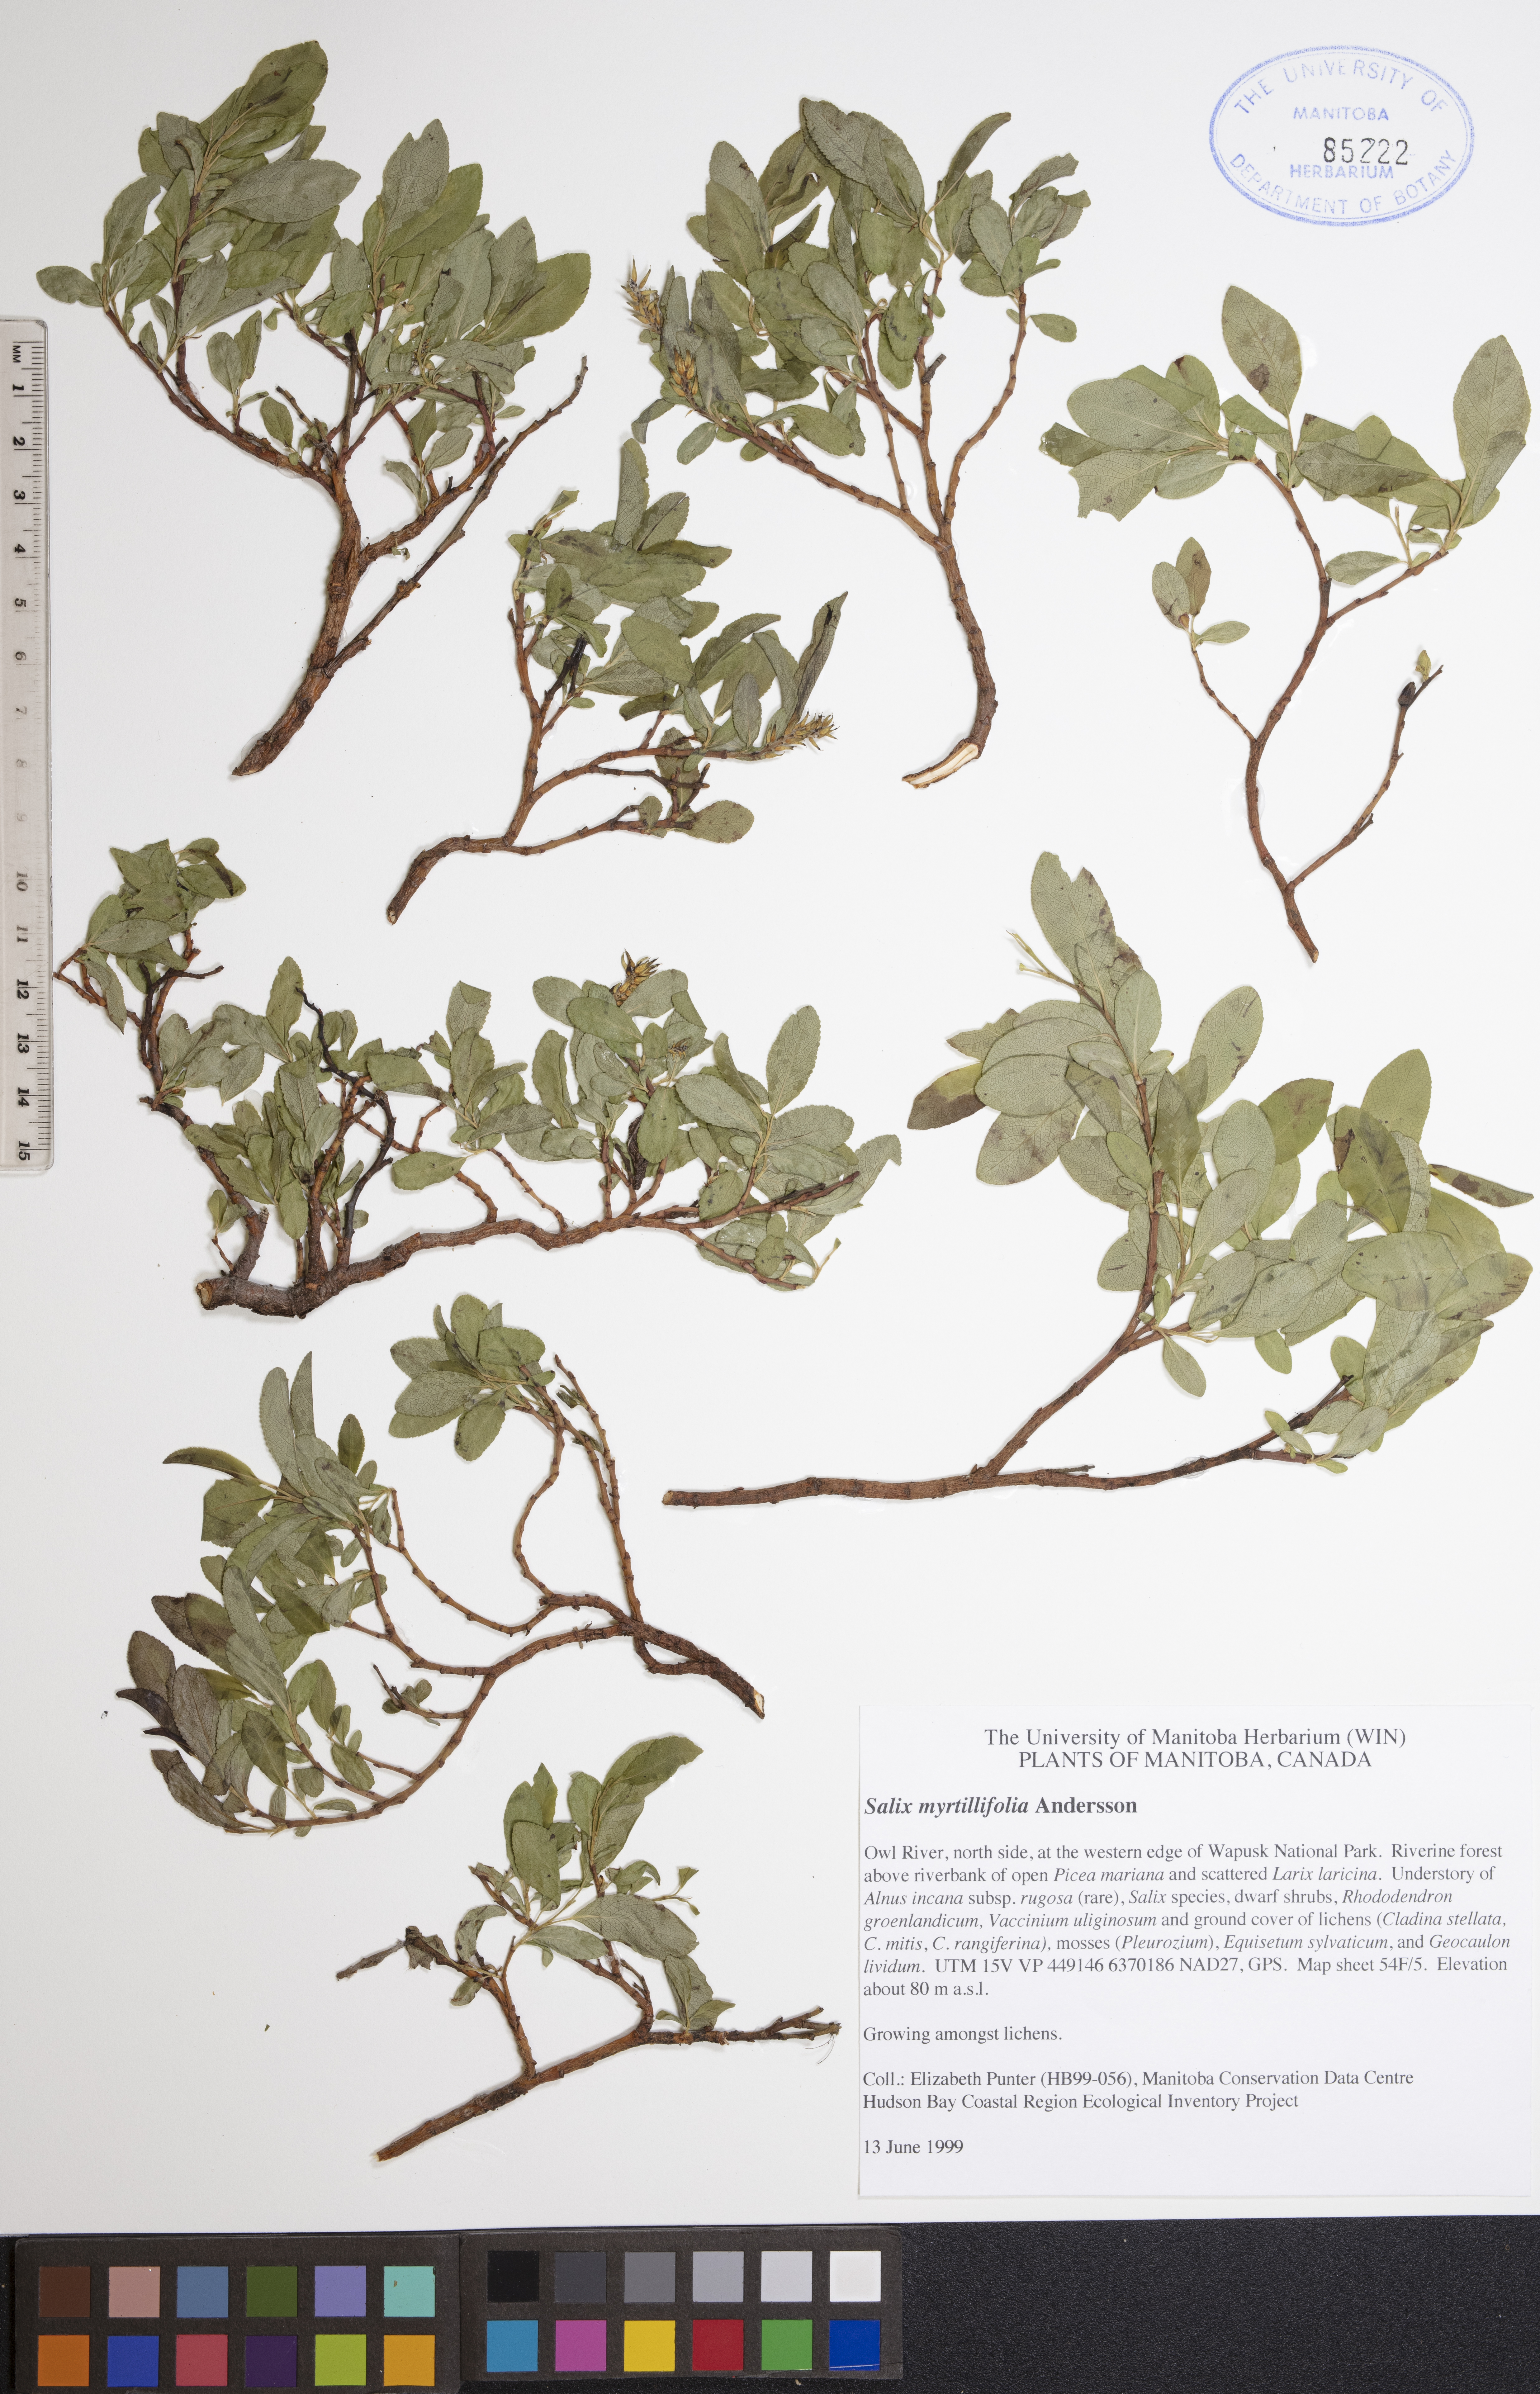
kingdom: Plantae
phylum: Tracheophyta
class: Magnoliopsida
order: Malpighiales
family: Salicaceae
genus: Salix
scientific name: Salix myrtillifolia
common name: Bilberry willow
